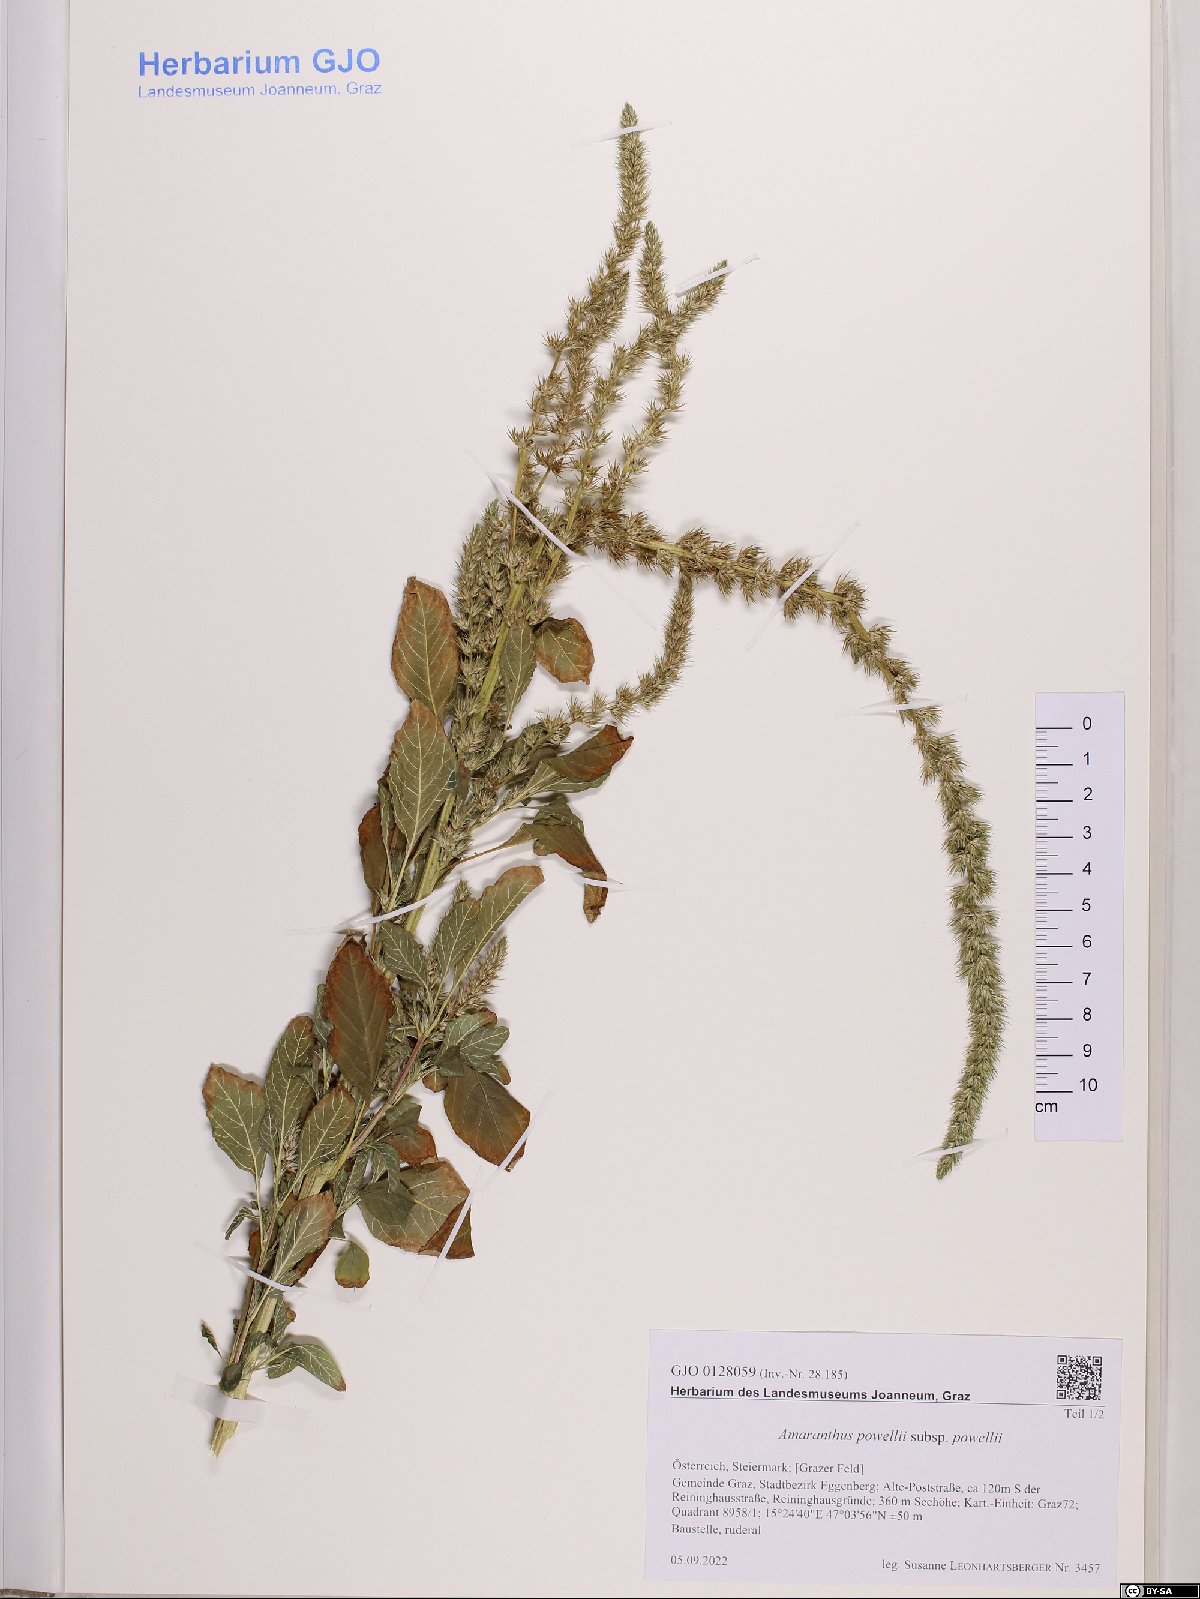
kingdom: Plantae
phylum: Tracheophyta
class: Magnoliopsida
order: Caryophyllales
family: Amaranthaceae
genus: Amaranthus
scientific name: Amaranthus powellii
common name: Powell's amaranth
